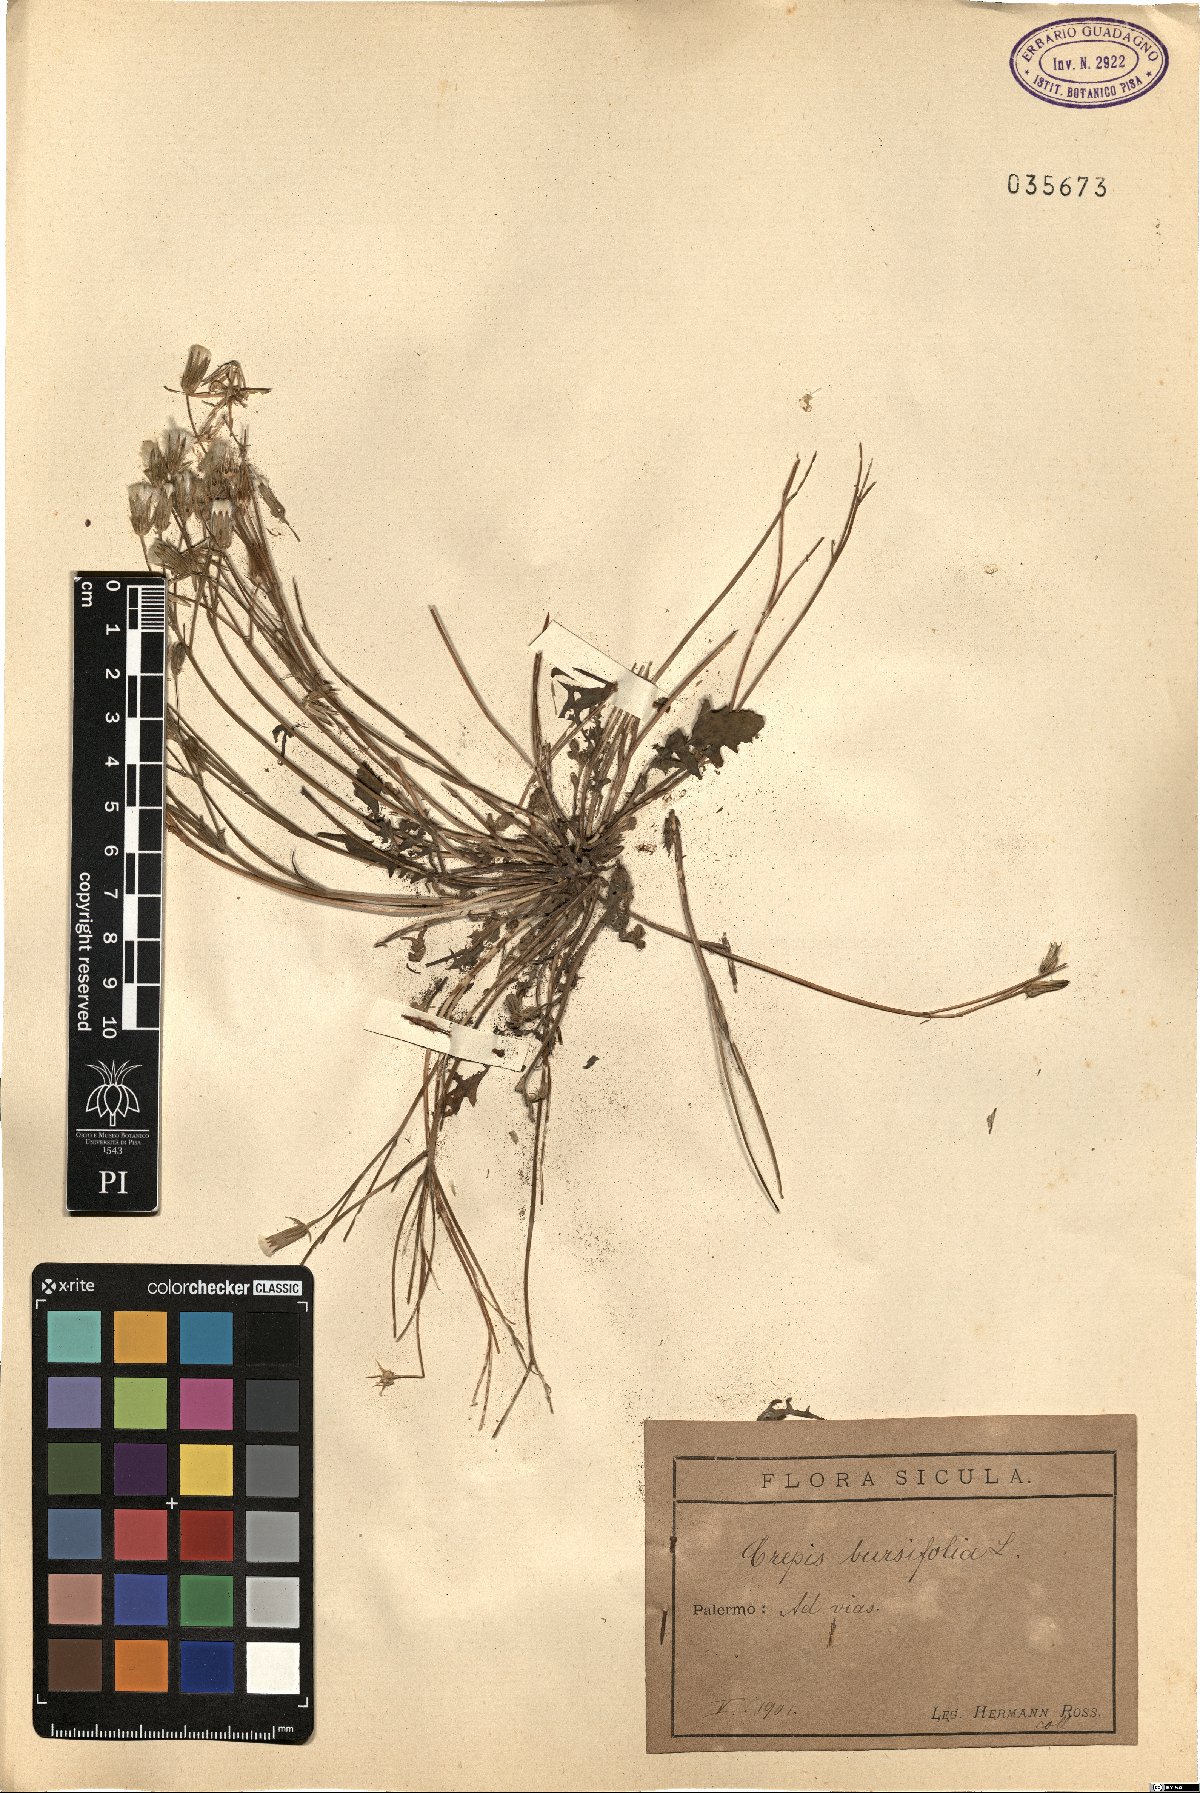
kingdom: Plantae
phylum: Tracheophyta
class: Magnoliopsida
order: Asterales
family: Asteraceae
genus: Crepis
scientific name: Crepis bursifolia
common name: Italian hawksbeard
